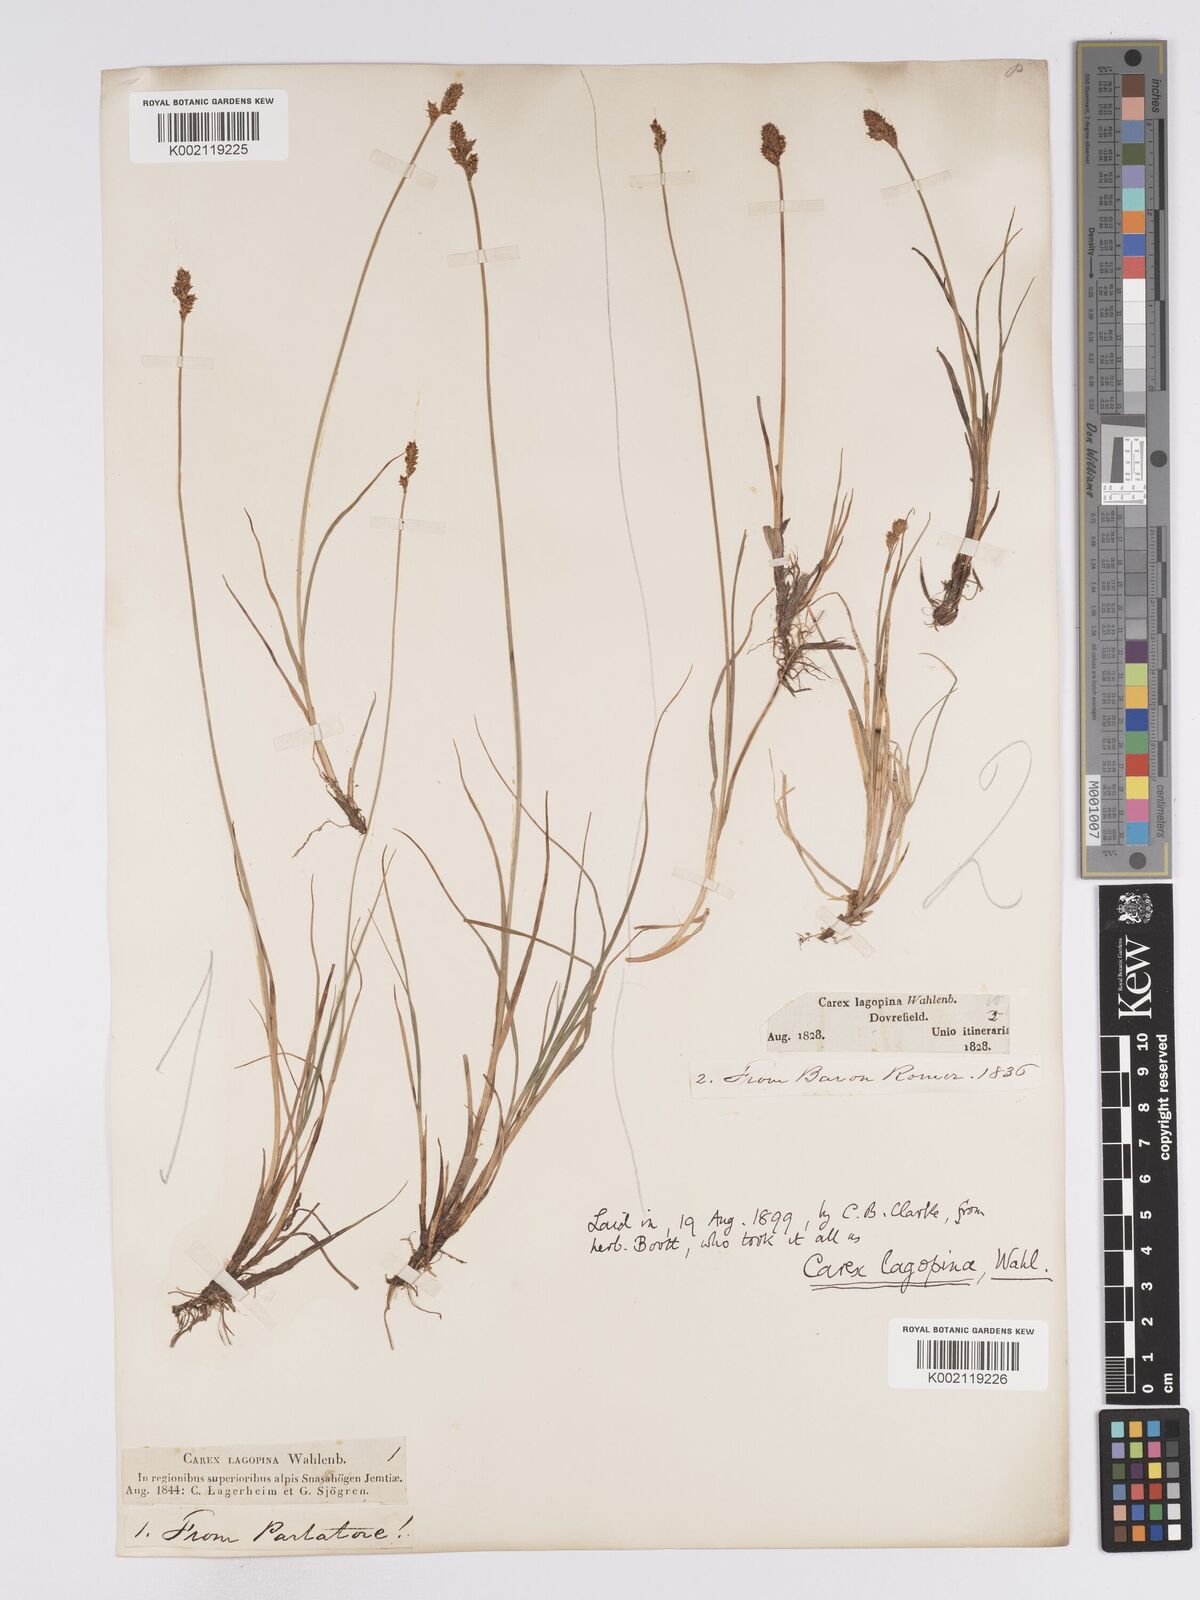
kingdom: Plantae
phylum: Tracheophyta
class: Liliopsida
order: Poales
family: Cyperaceae
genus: Carex
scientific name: Carex lachenalii
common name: Hare's-foot sedge
